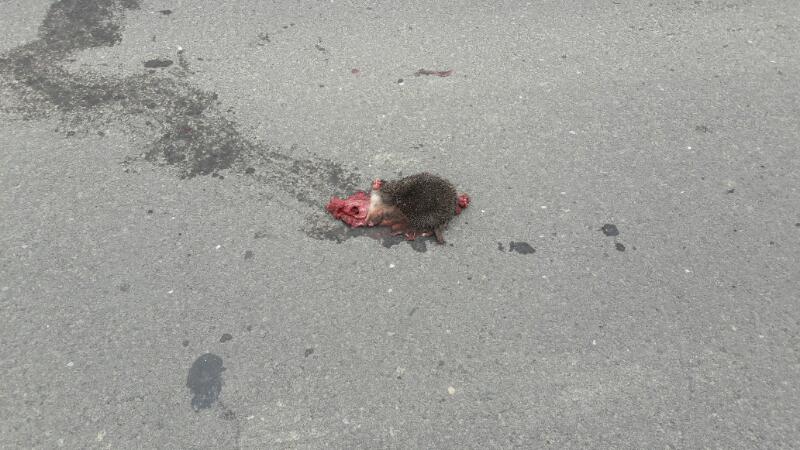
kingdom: Animalia
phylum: Chordata
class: Mammalia
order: Erinaceomorpha
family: Erinaceidae
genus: Erinaceus
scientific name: Erinaceus
